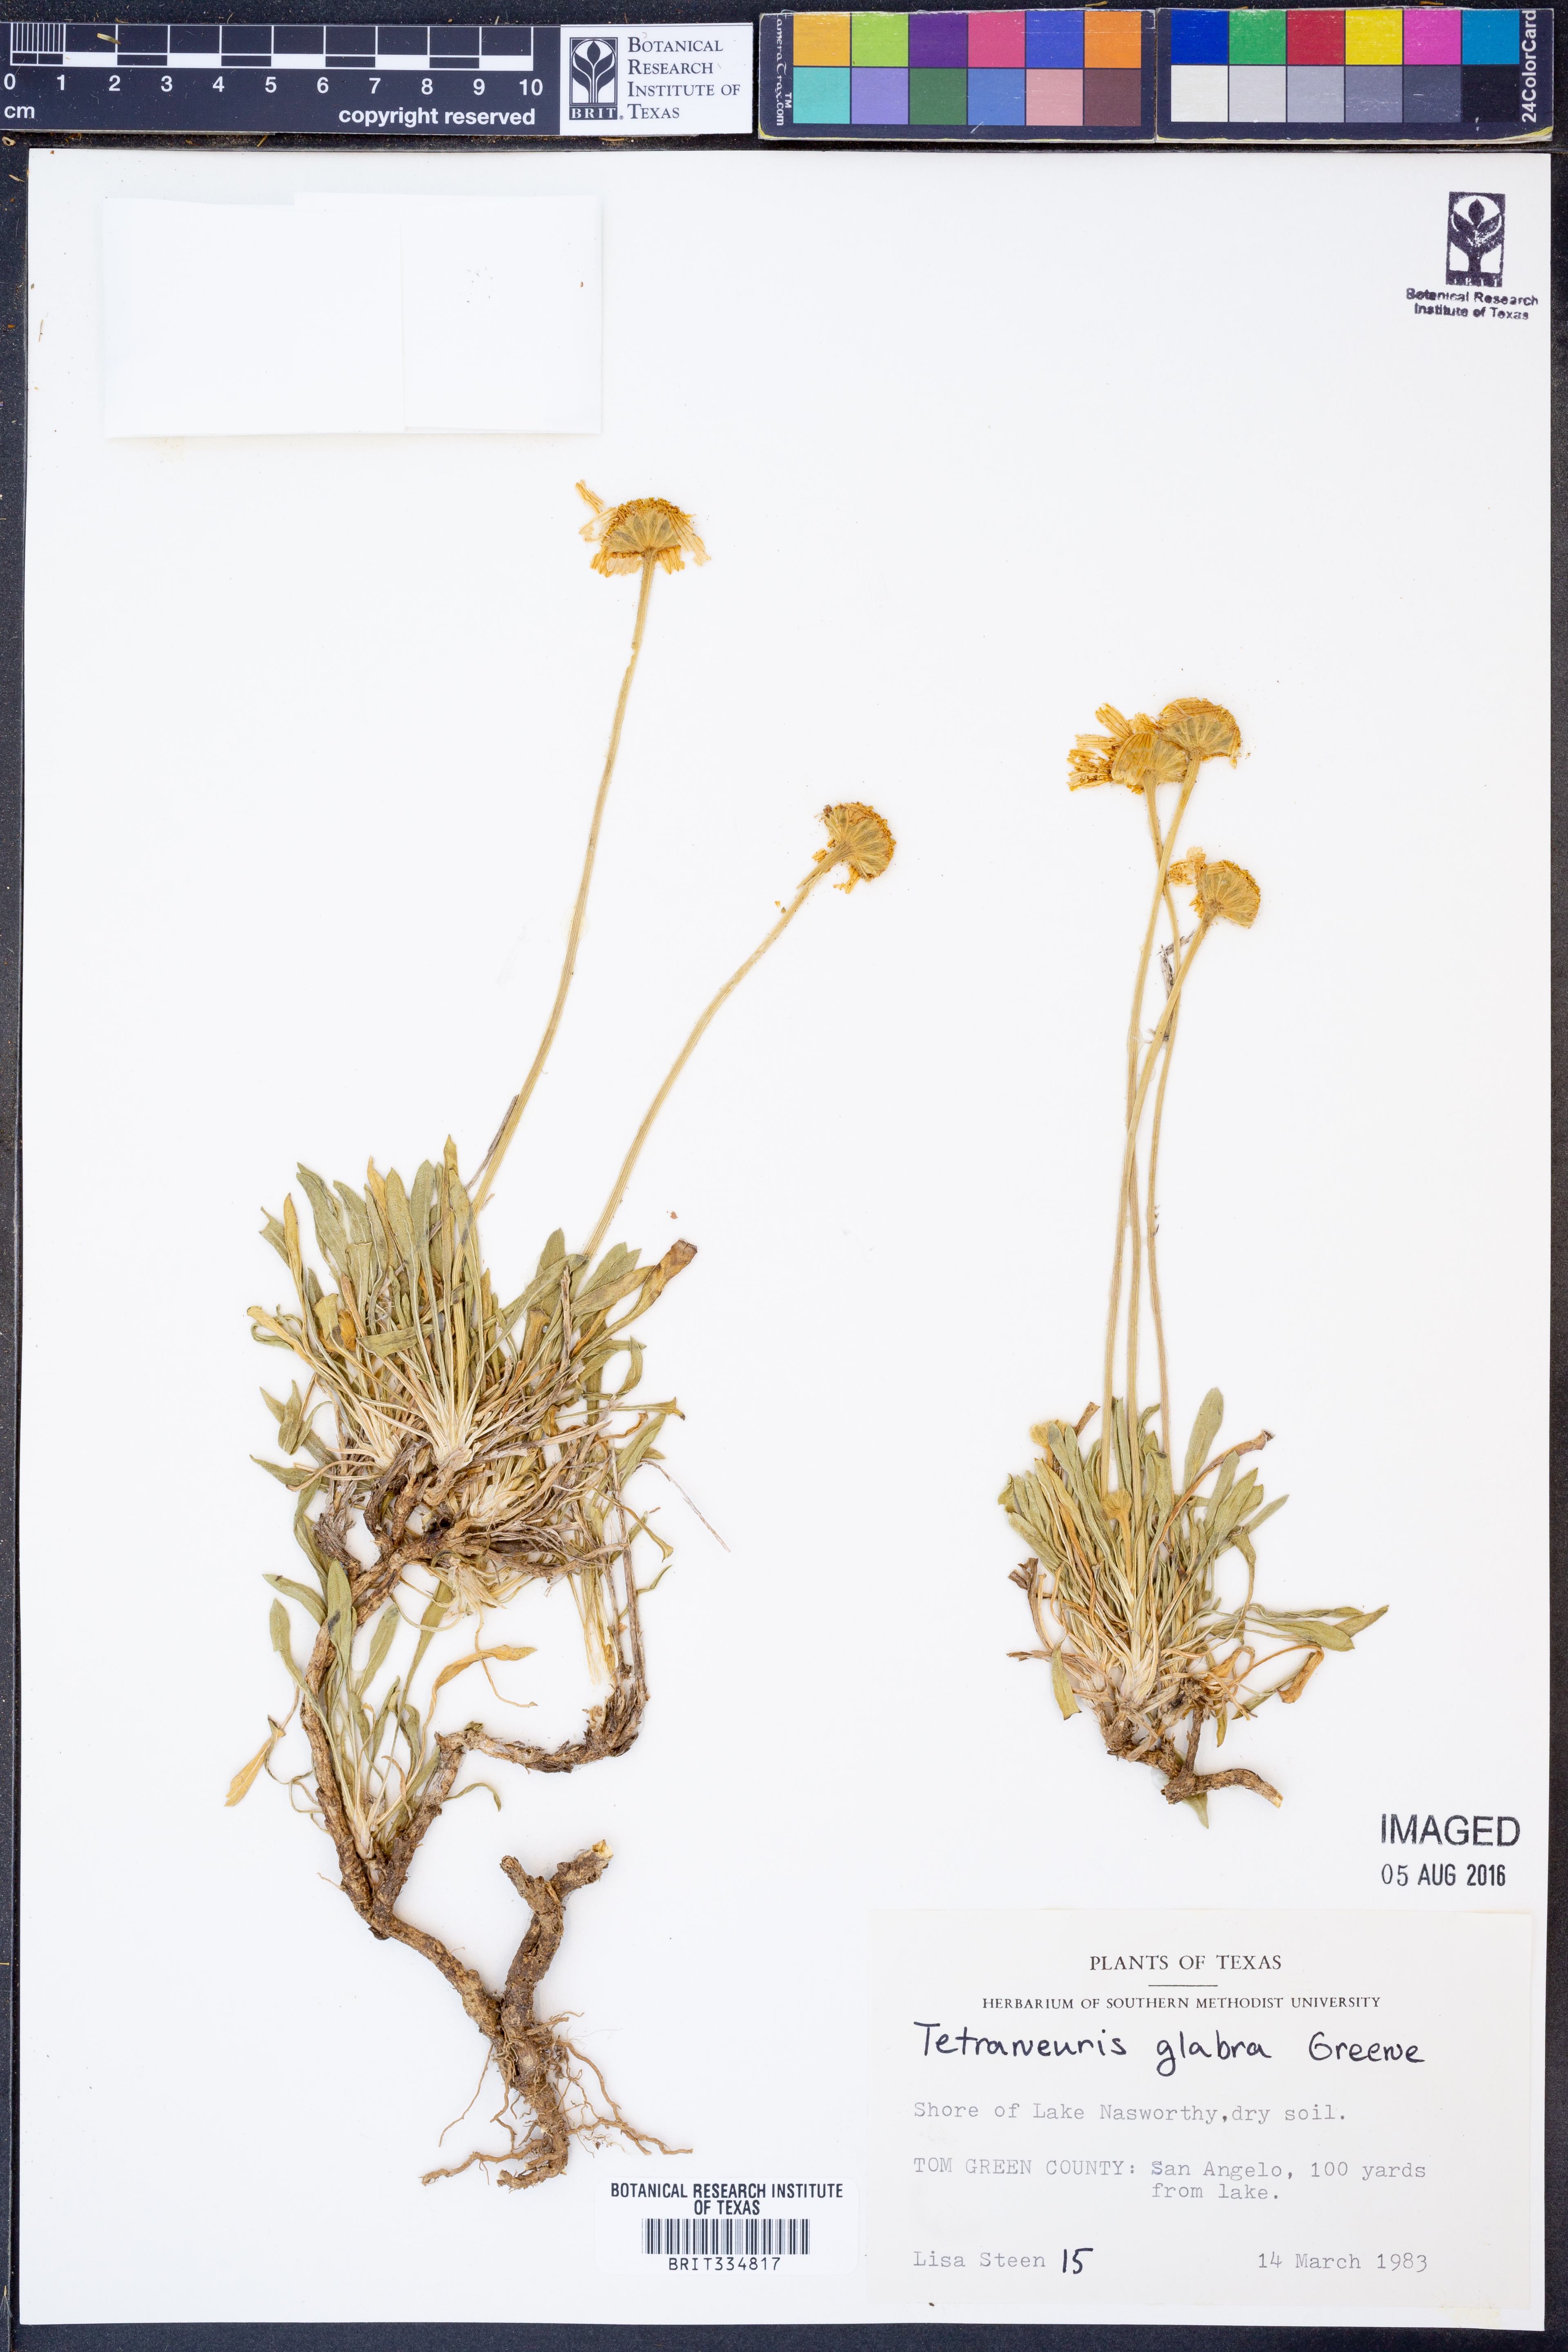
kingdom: Plantae
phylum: Tracheophyta
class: Magnoliopsida
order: Asterales
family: Asteraceae
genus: Tetraneuris
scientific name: Tetraneuris scaposa
